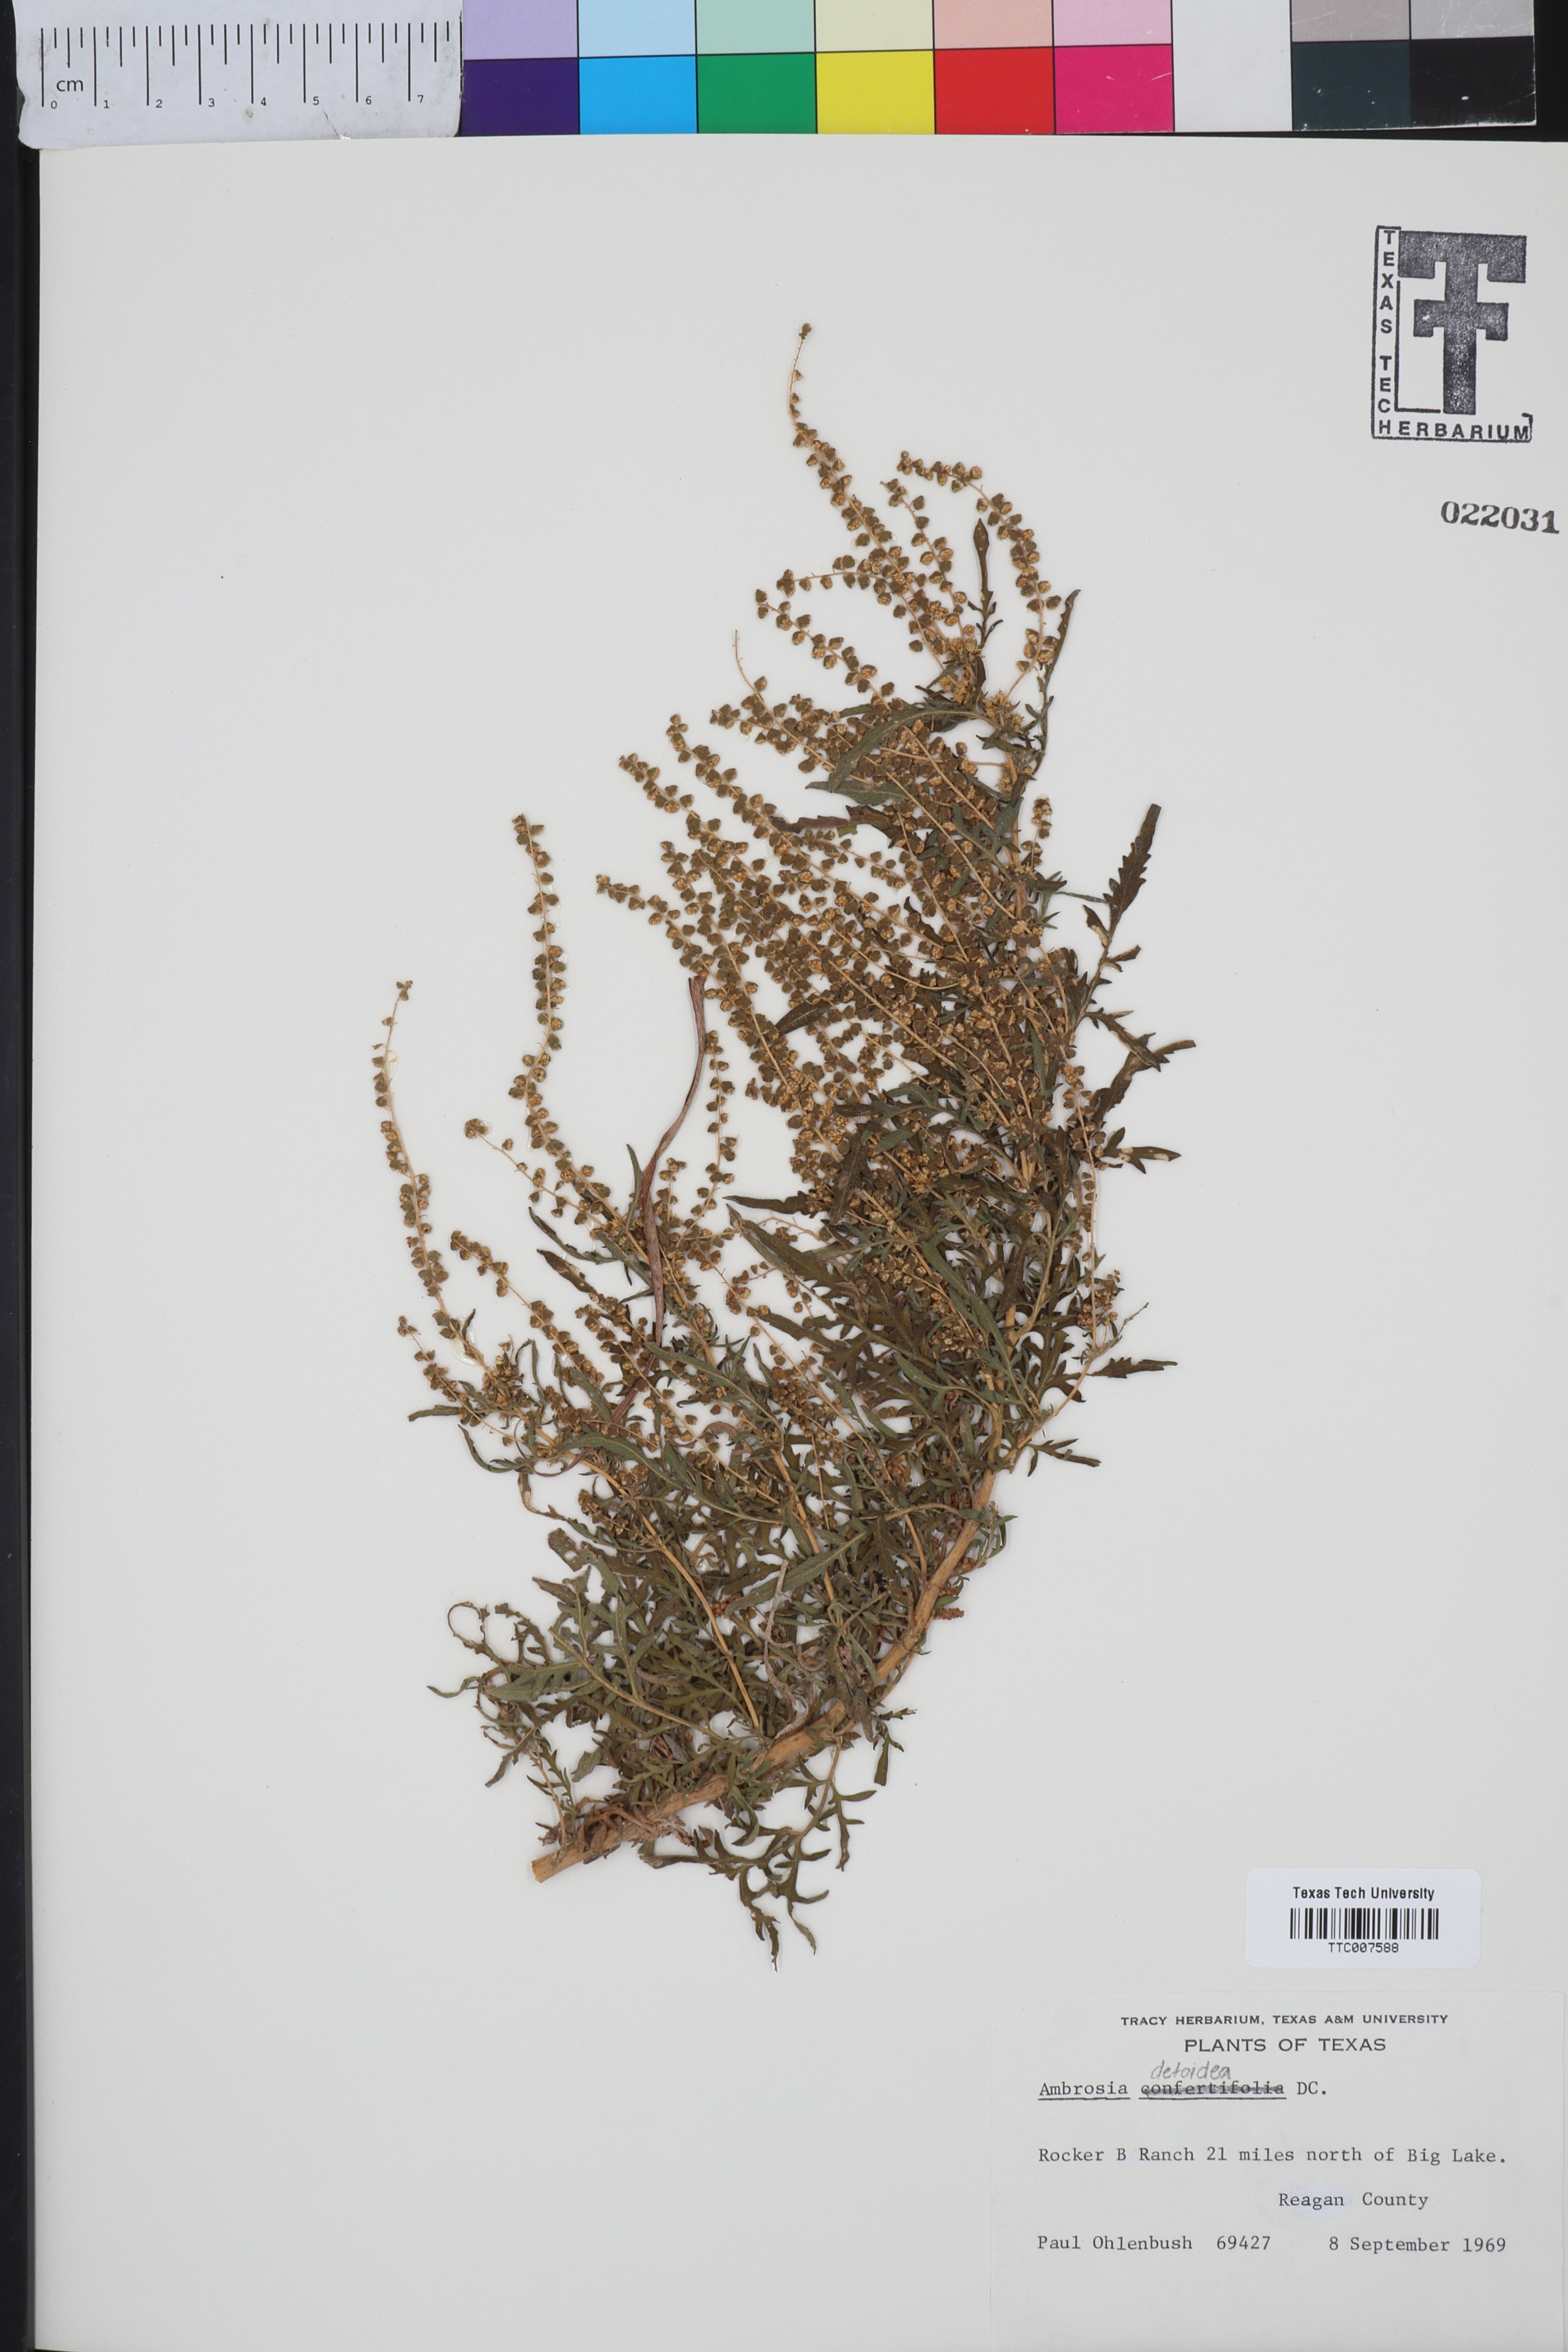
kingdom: Plantae
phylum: Tracheophyta
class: Magnoliopsida
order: Asterales
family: Asteraceae
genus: Ambrosia
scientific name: Ambrosia confertiflora
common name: Bur ragweed
